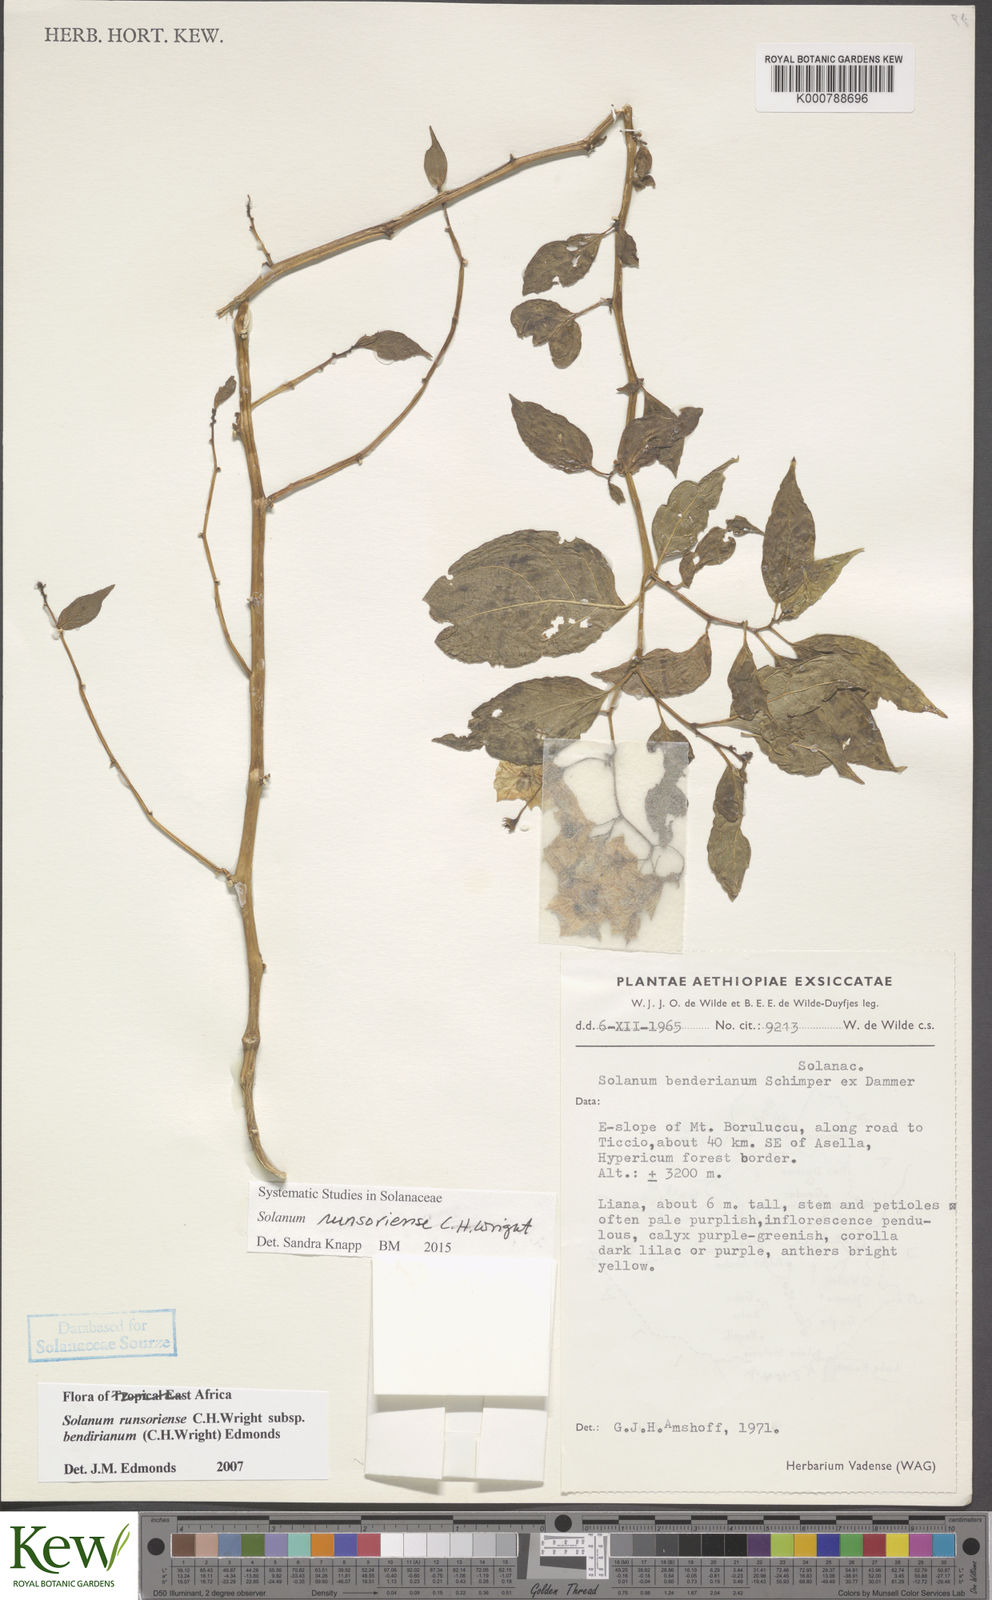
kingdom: Plantae
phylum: Tracheophyta
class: Magnoliopsida
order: Solanales
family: Solanaceae
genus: Solanum
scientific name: Solanum runsoriense
